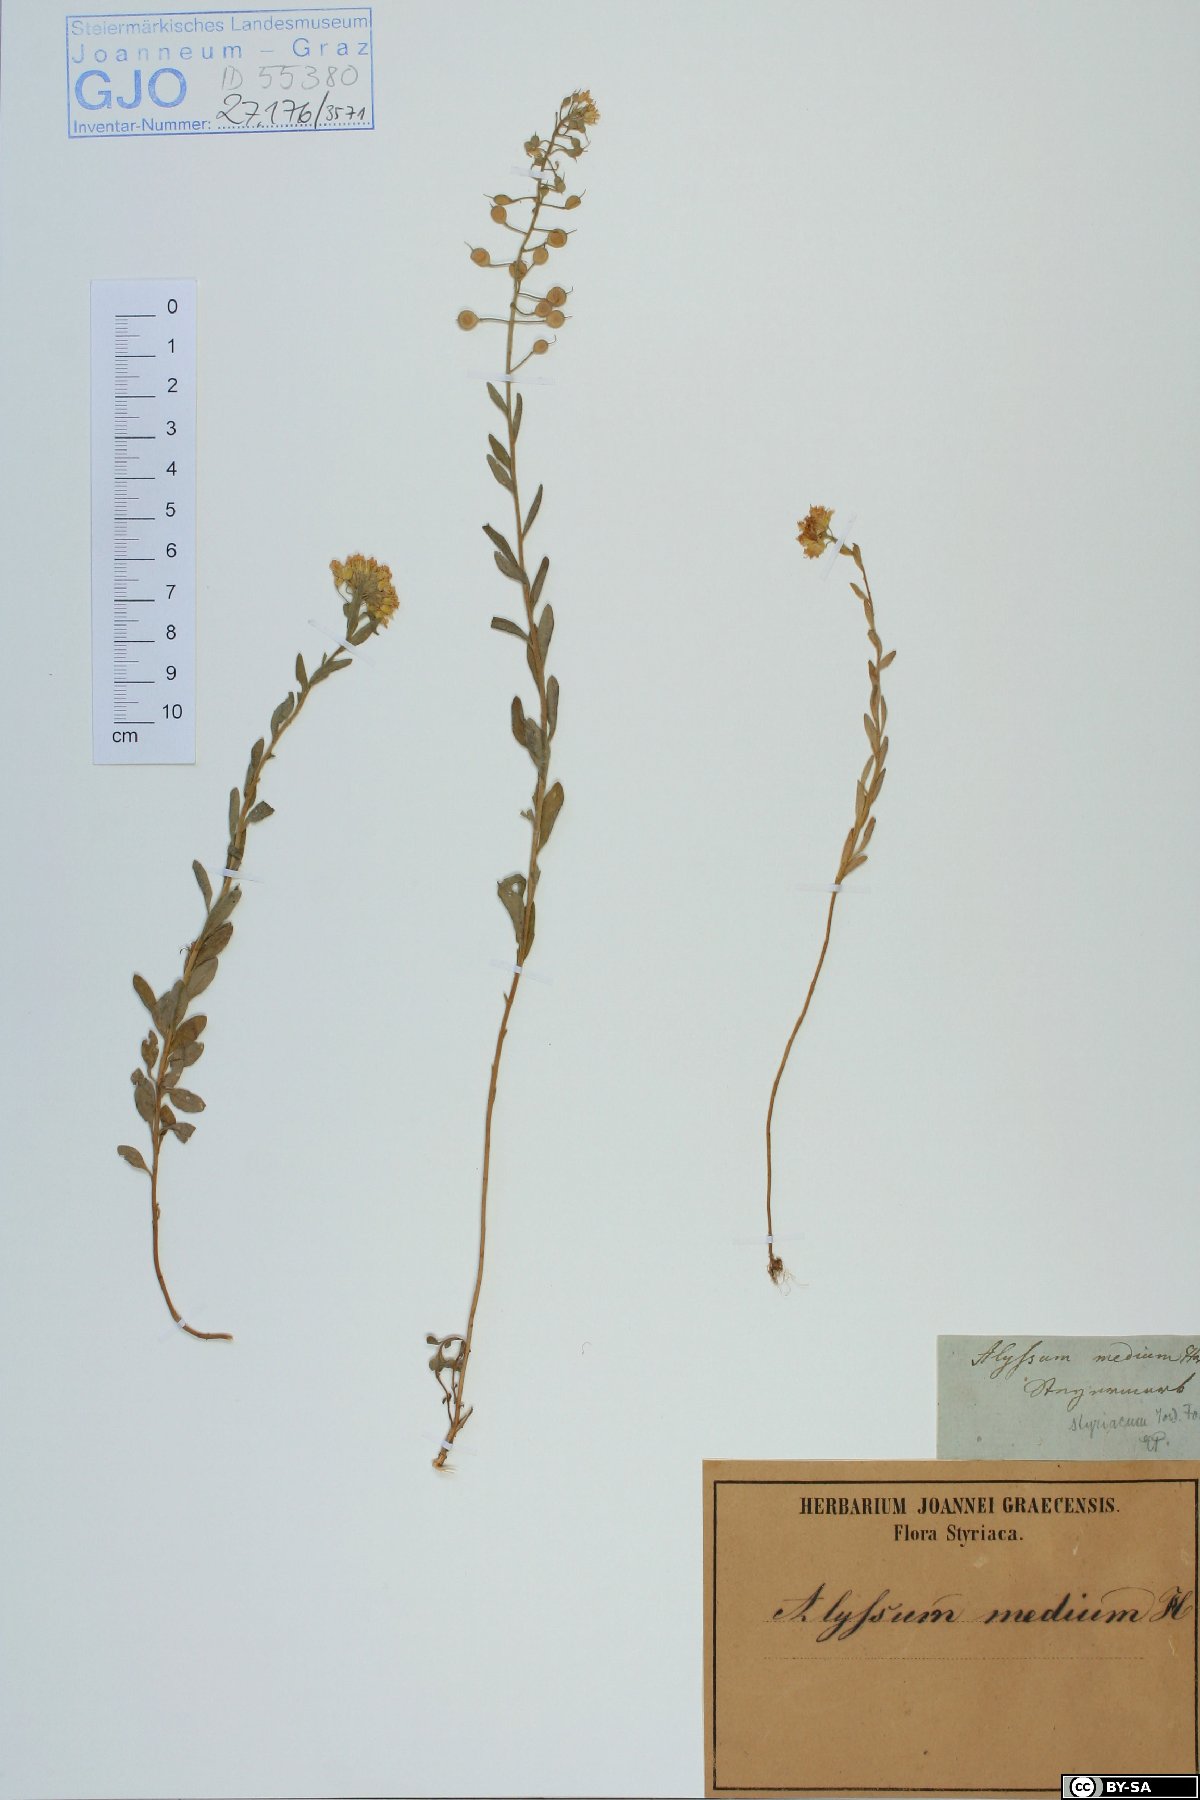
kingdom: Plantae
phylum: Tracheophyta
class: Magnoliopsida
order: Brassicales
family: Brassicaceae
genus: Alyssum
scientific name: Alyssum repens
